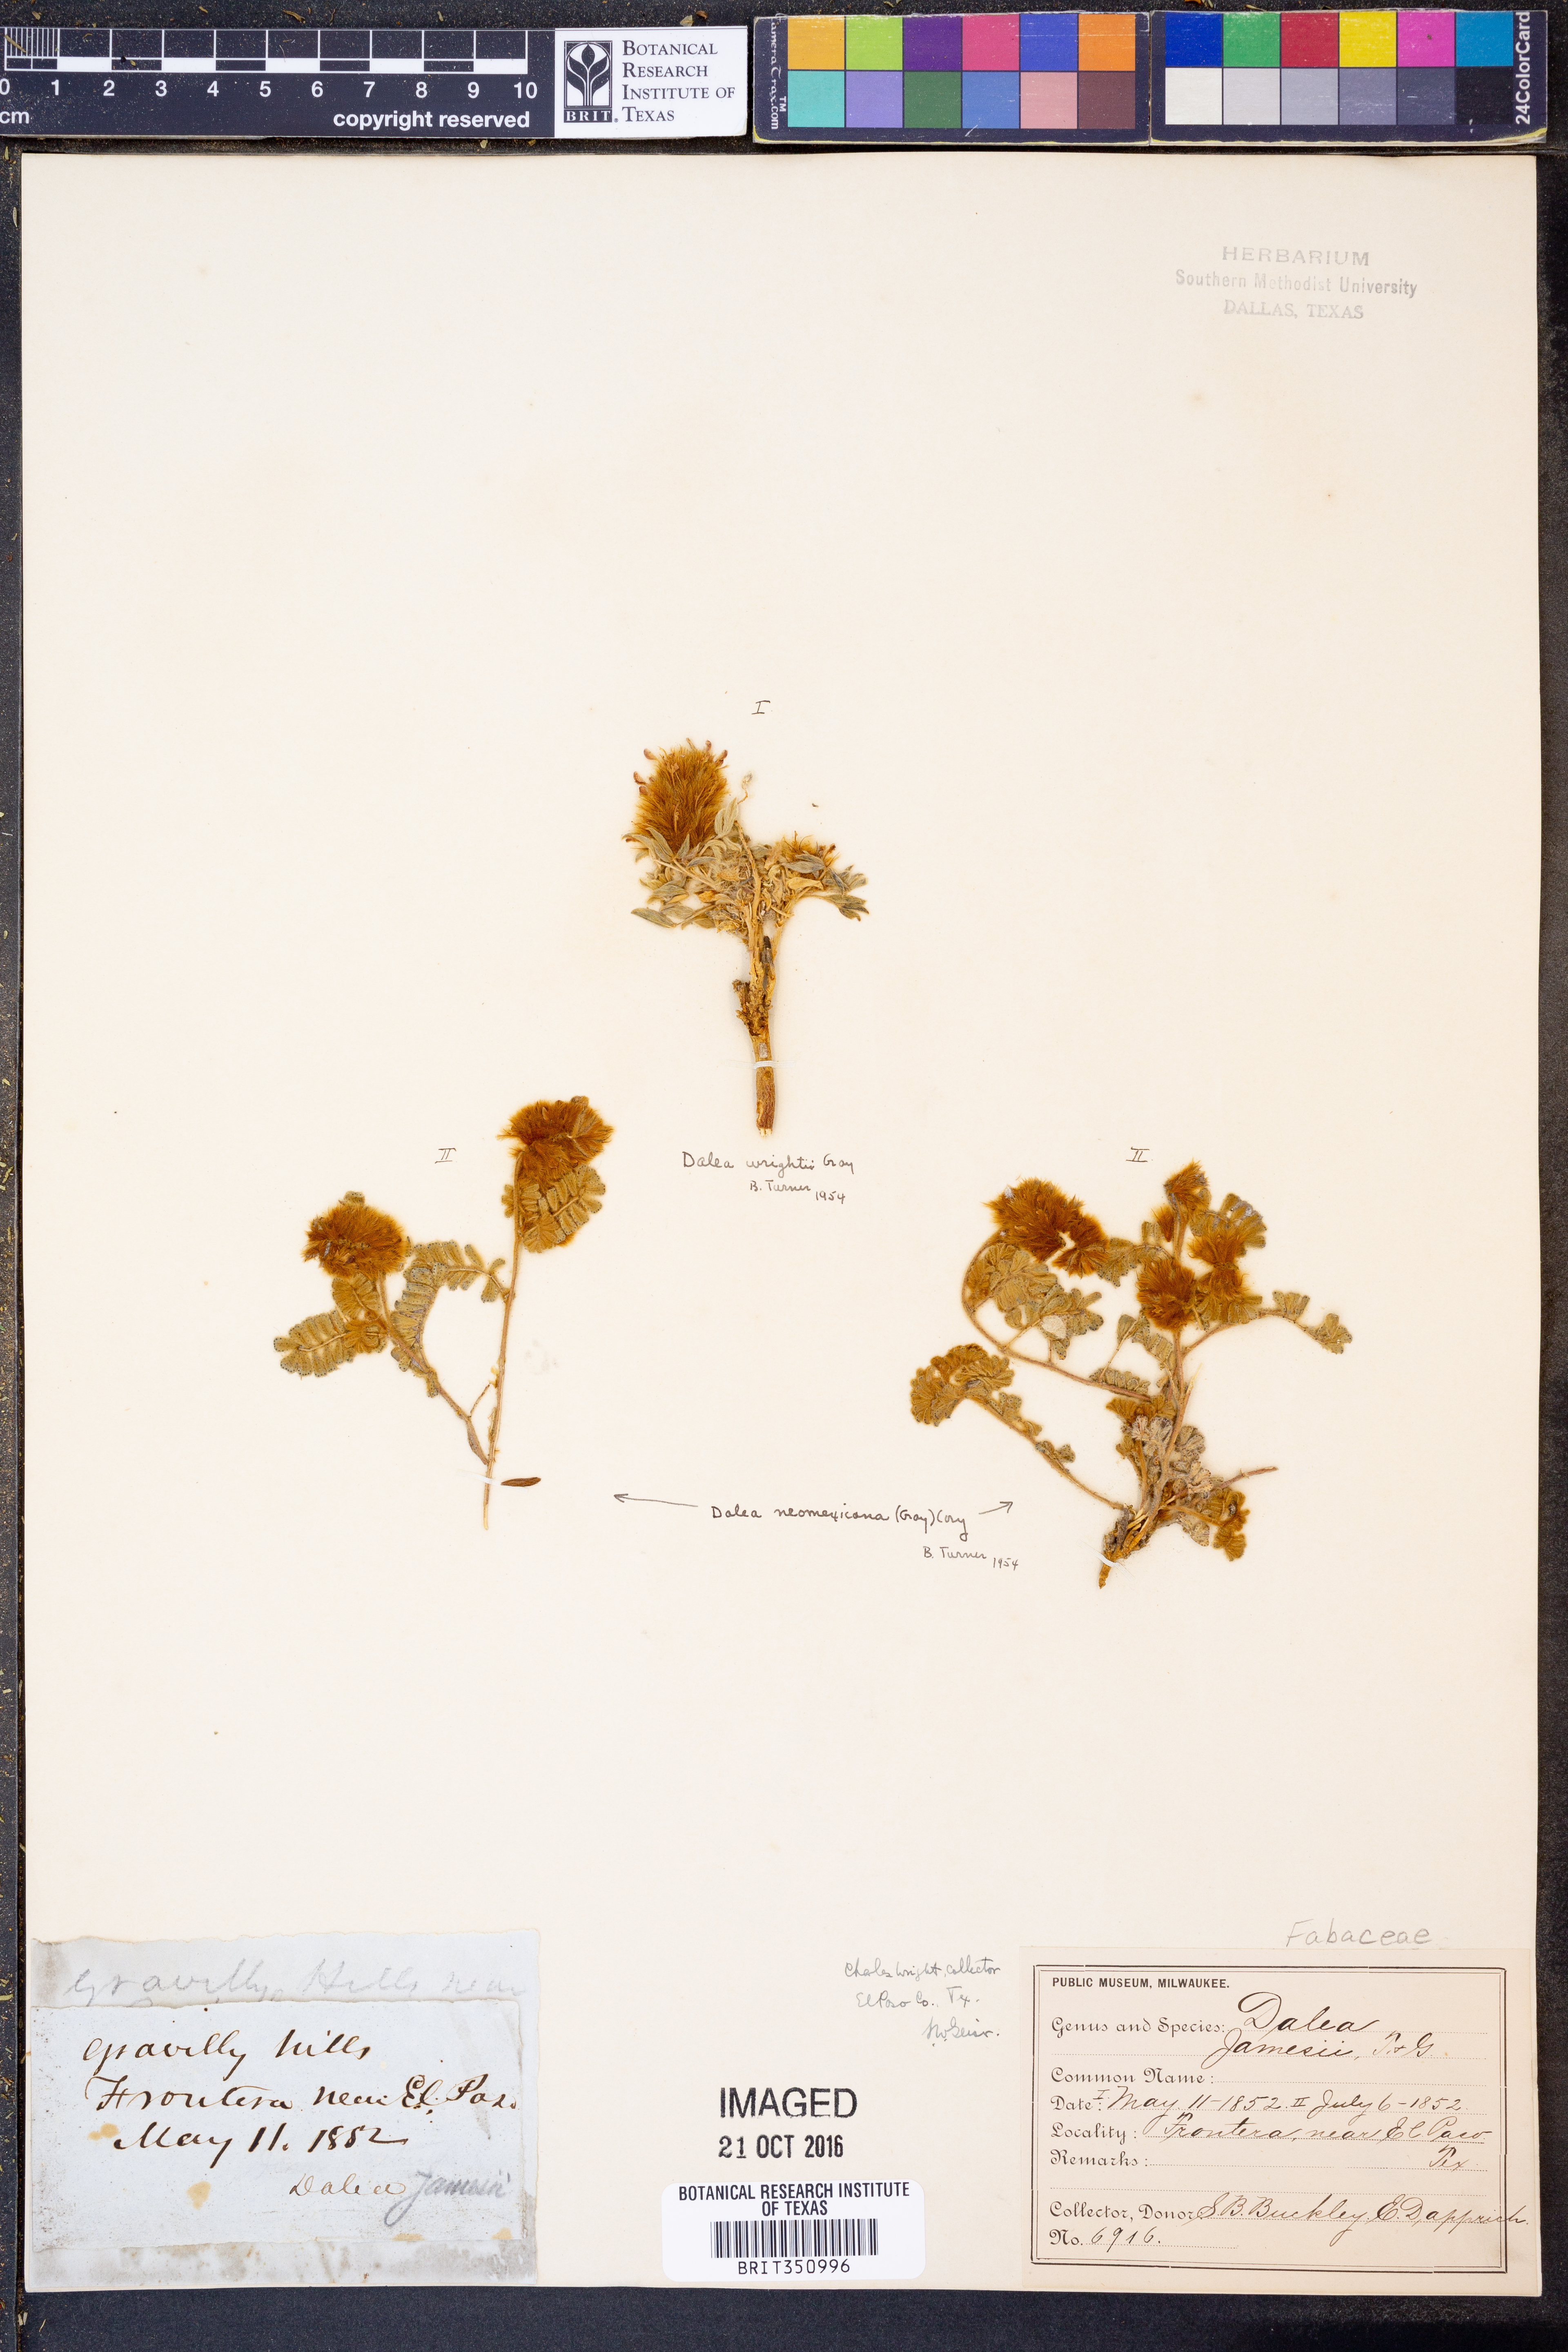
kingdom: Plantae
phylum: Tracheophyta
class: Magnoliopsida
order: Fabales
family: Fabaceae
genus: Dalea
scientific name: Dalea wrightii
